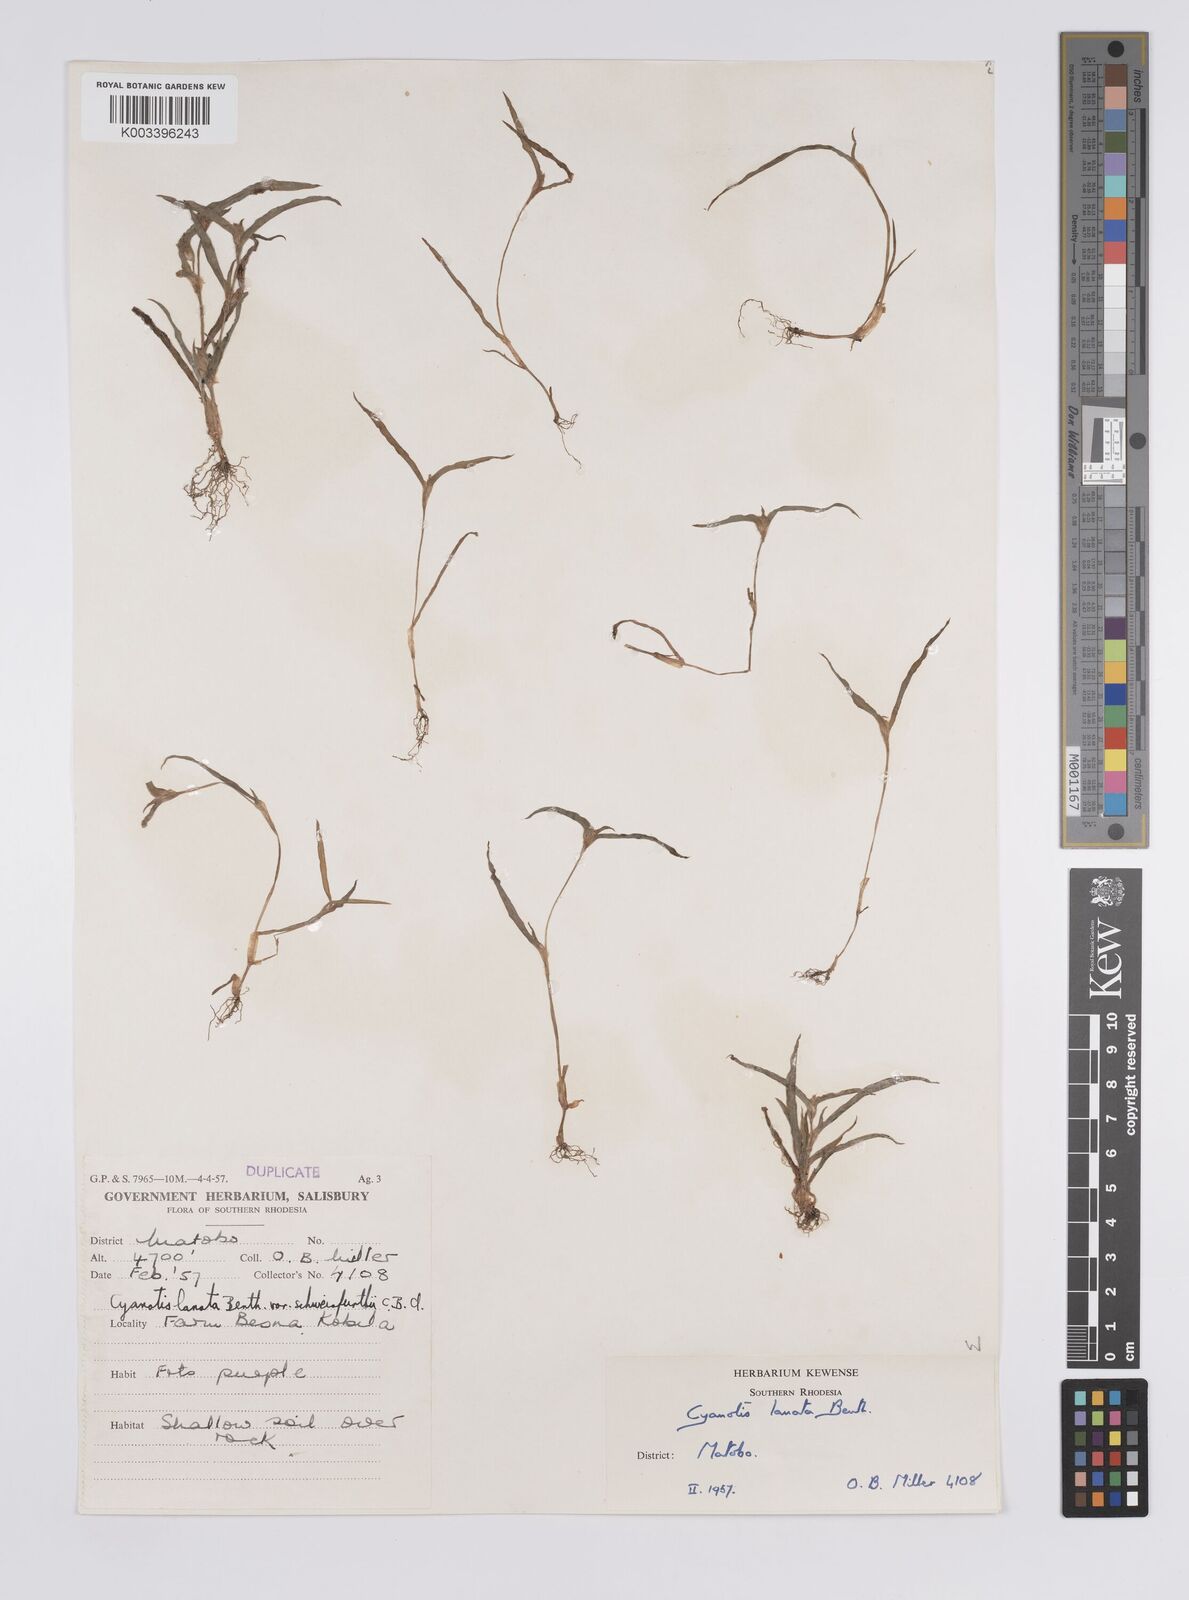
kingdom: Plantae
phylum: Tracheophyta
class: Liliopsida
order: Commelinales
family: Commelinaceae
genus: Cyanotis
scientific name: Cyanotis lanata
